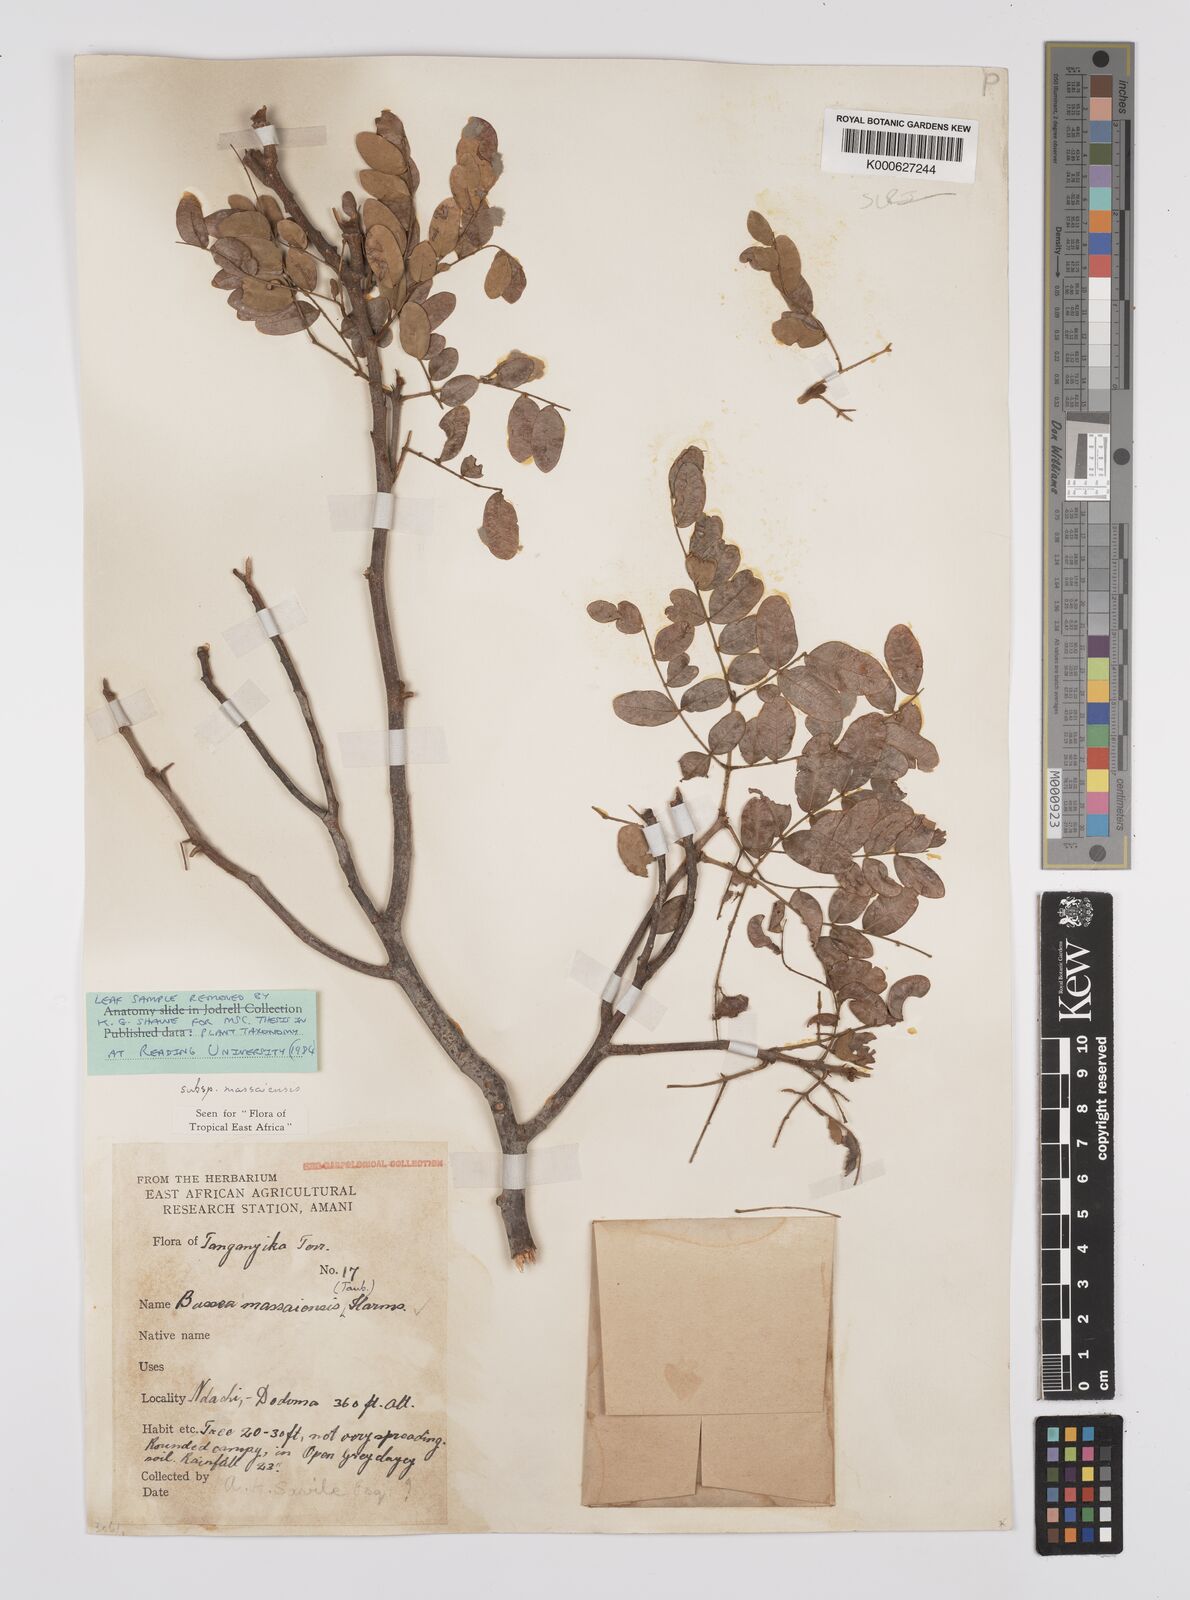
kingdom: Plantae
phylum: Tracheophyta
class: Magnoliopsida
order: Fabales
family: Fabaceae
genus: Bussea
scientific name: Bussea
